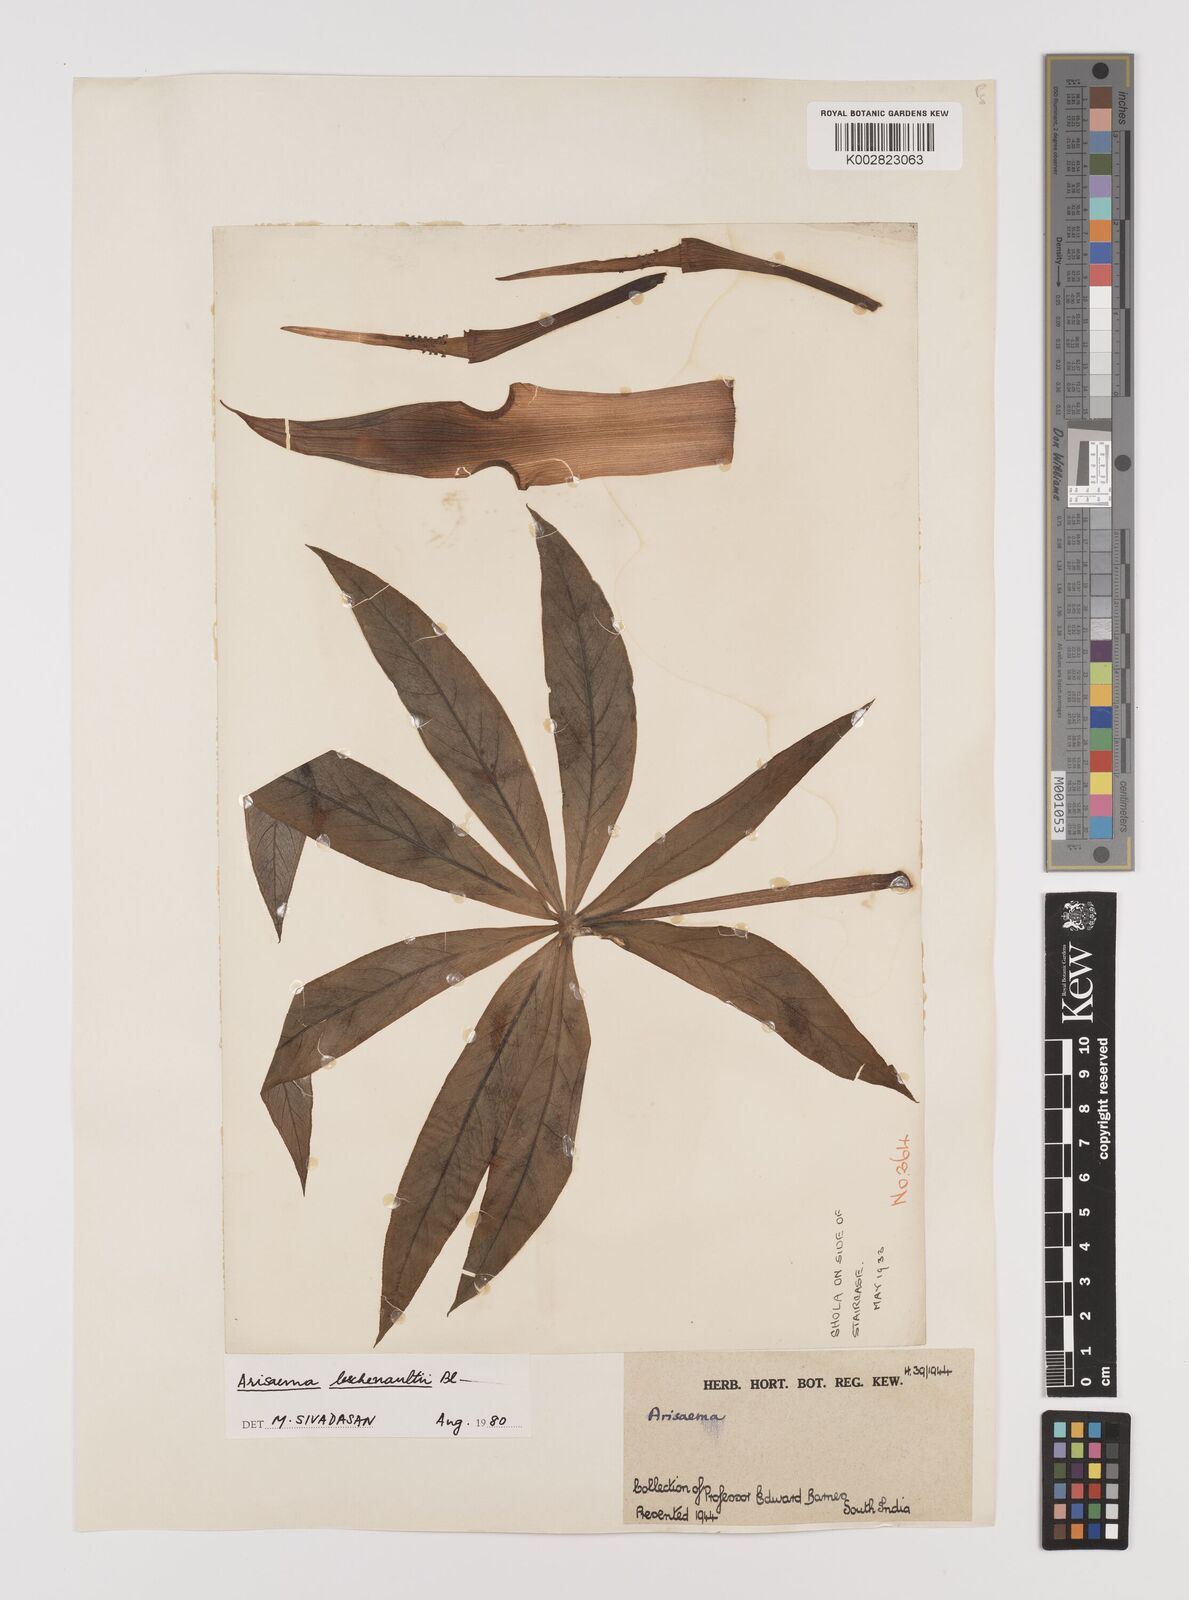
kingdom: Plantae
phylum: Tracheophyta
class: Liliopsida
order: Alismatales
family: Araceae
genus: Arisaema
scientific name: Arisaema leschenaultii
